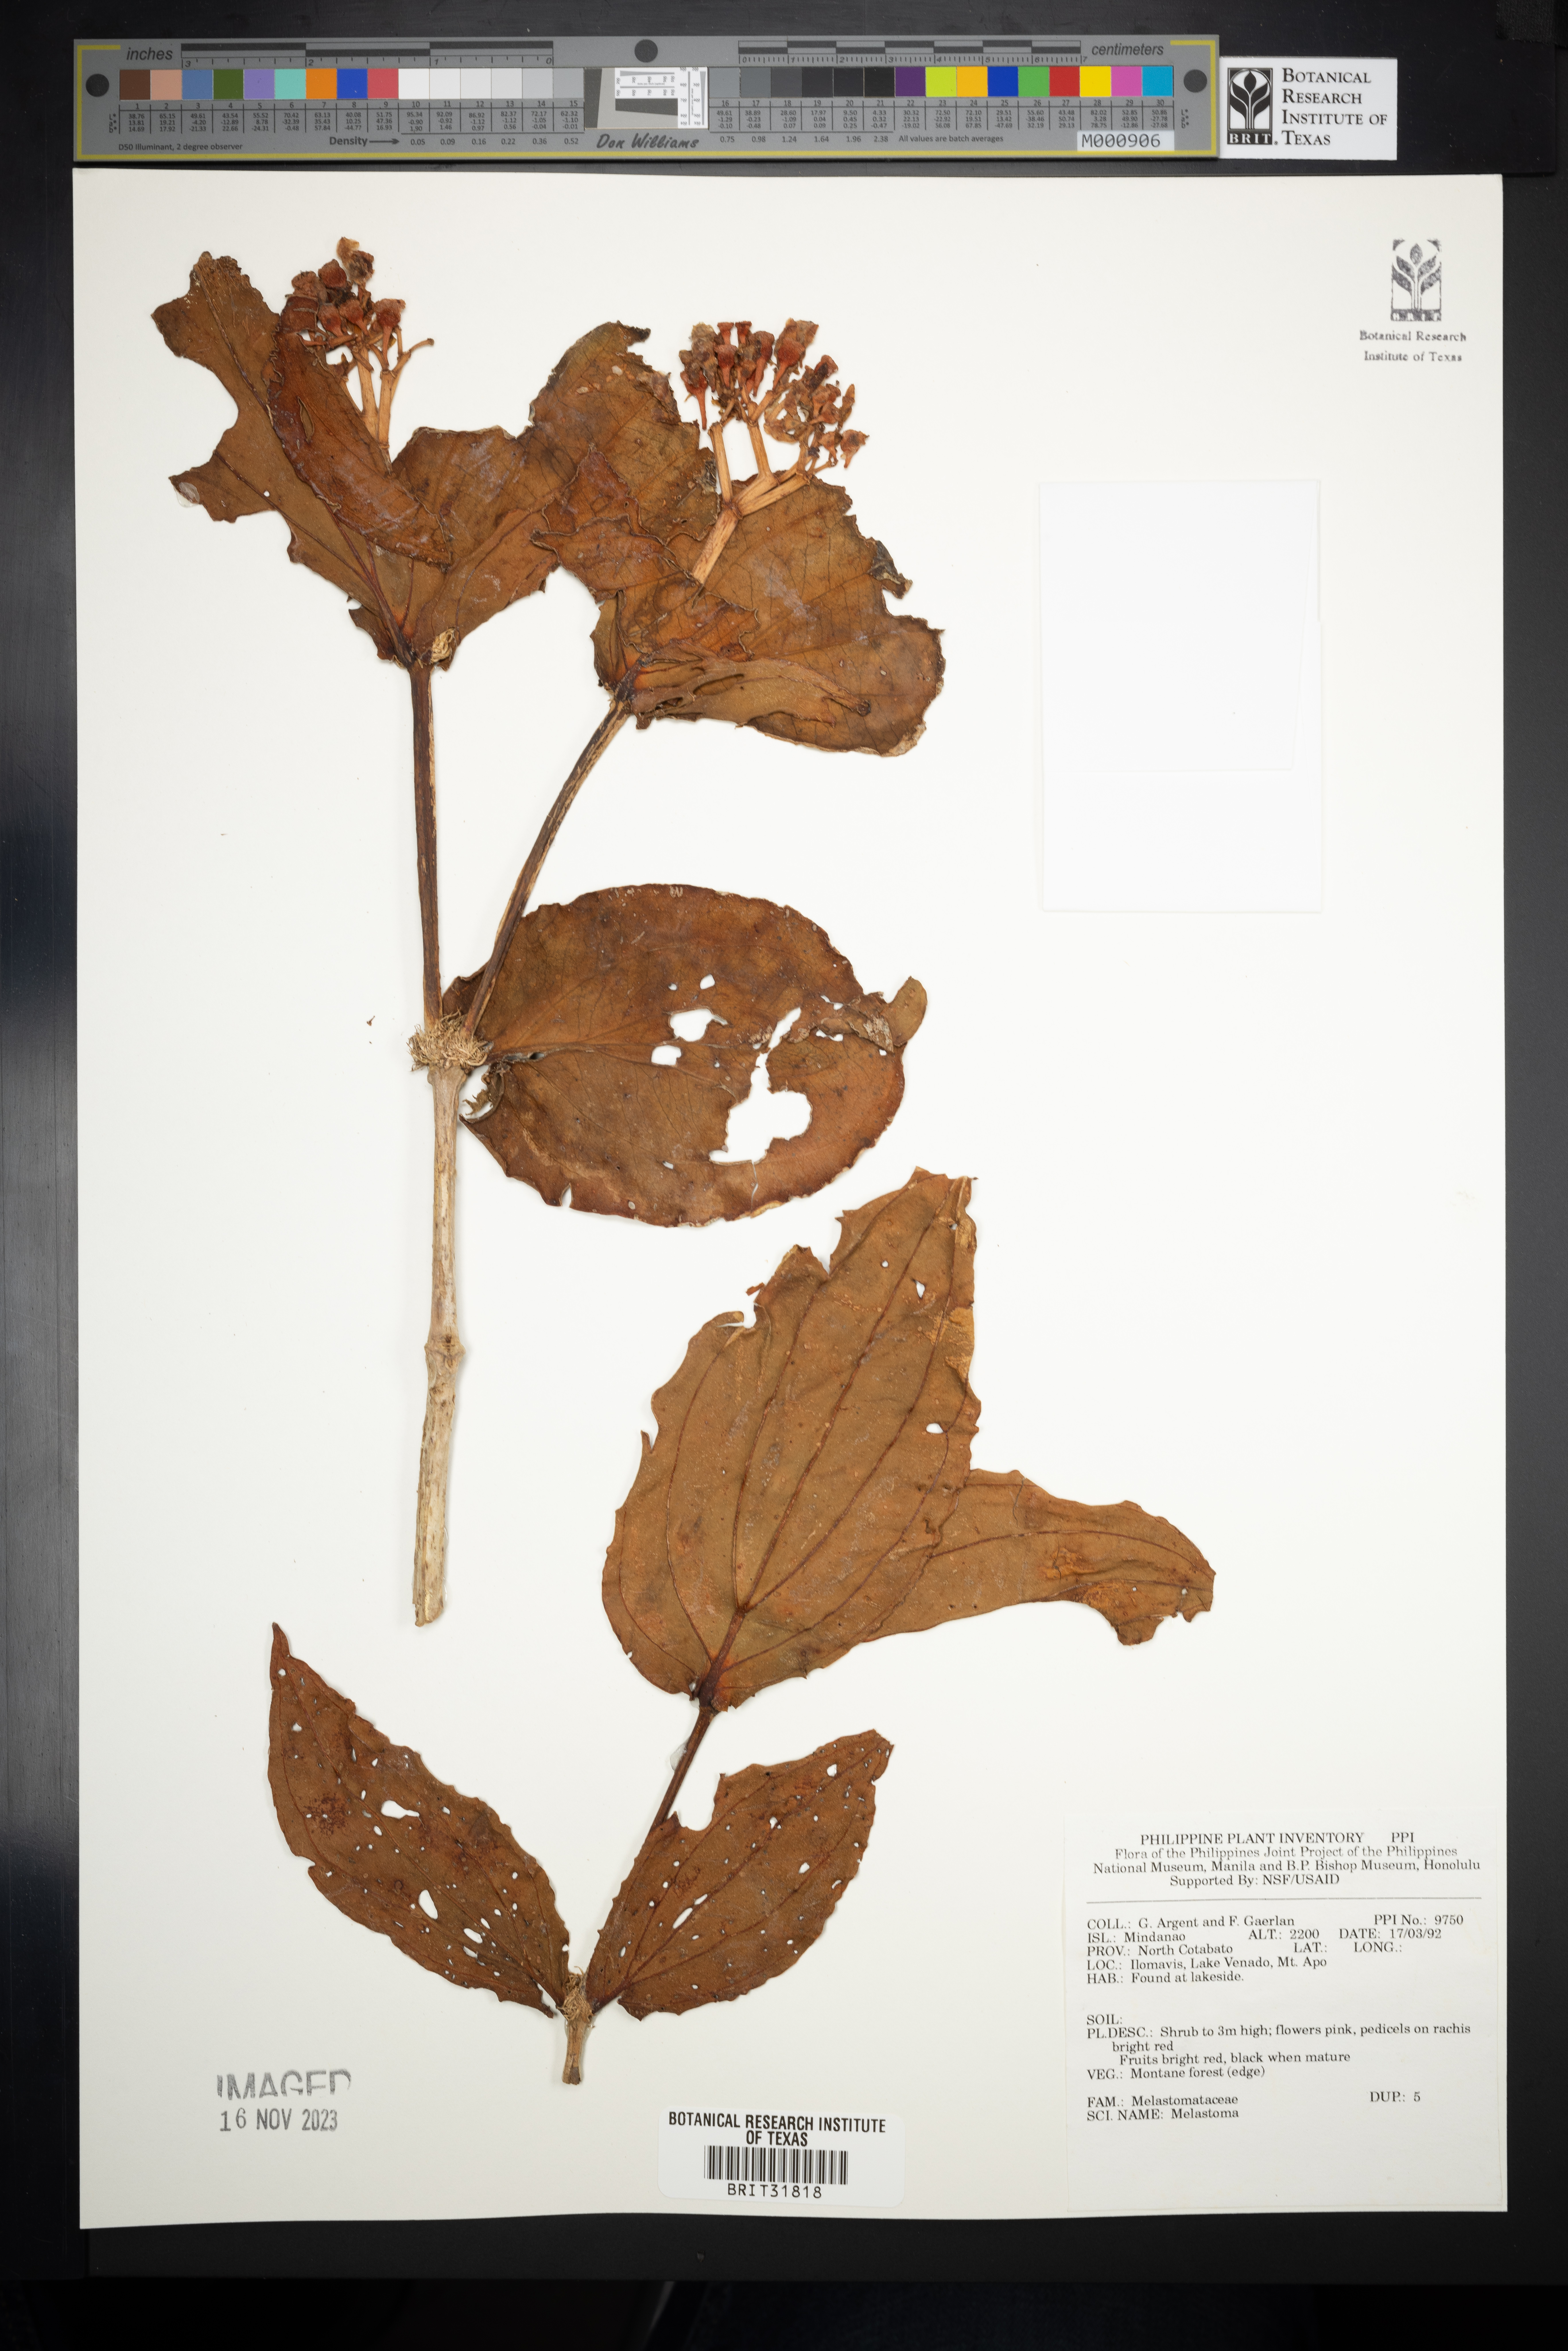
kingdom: Plantae
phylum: Tracheophyta
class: Magnoliopsida
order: Myrtales
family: Melastomataceae
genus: Melastoma
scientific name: Melastoma
